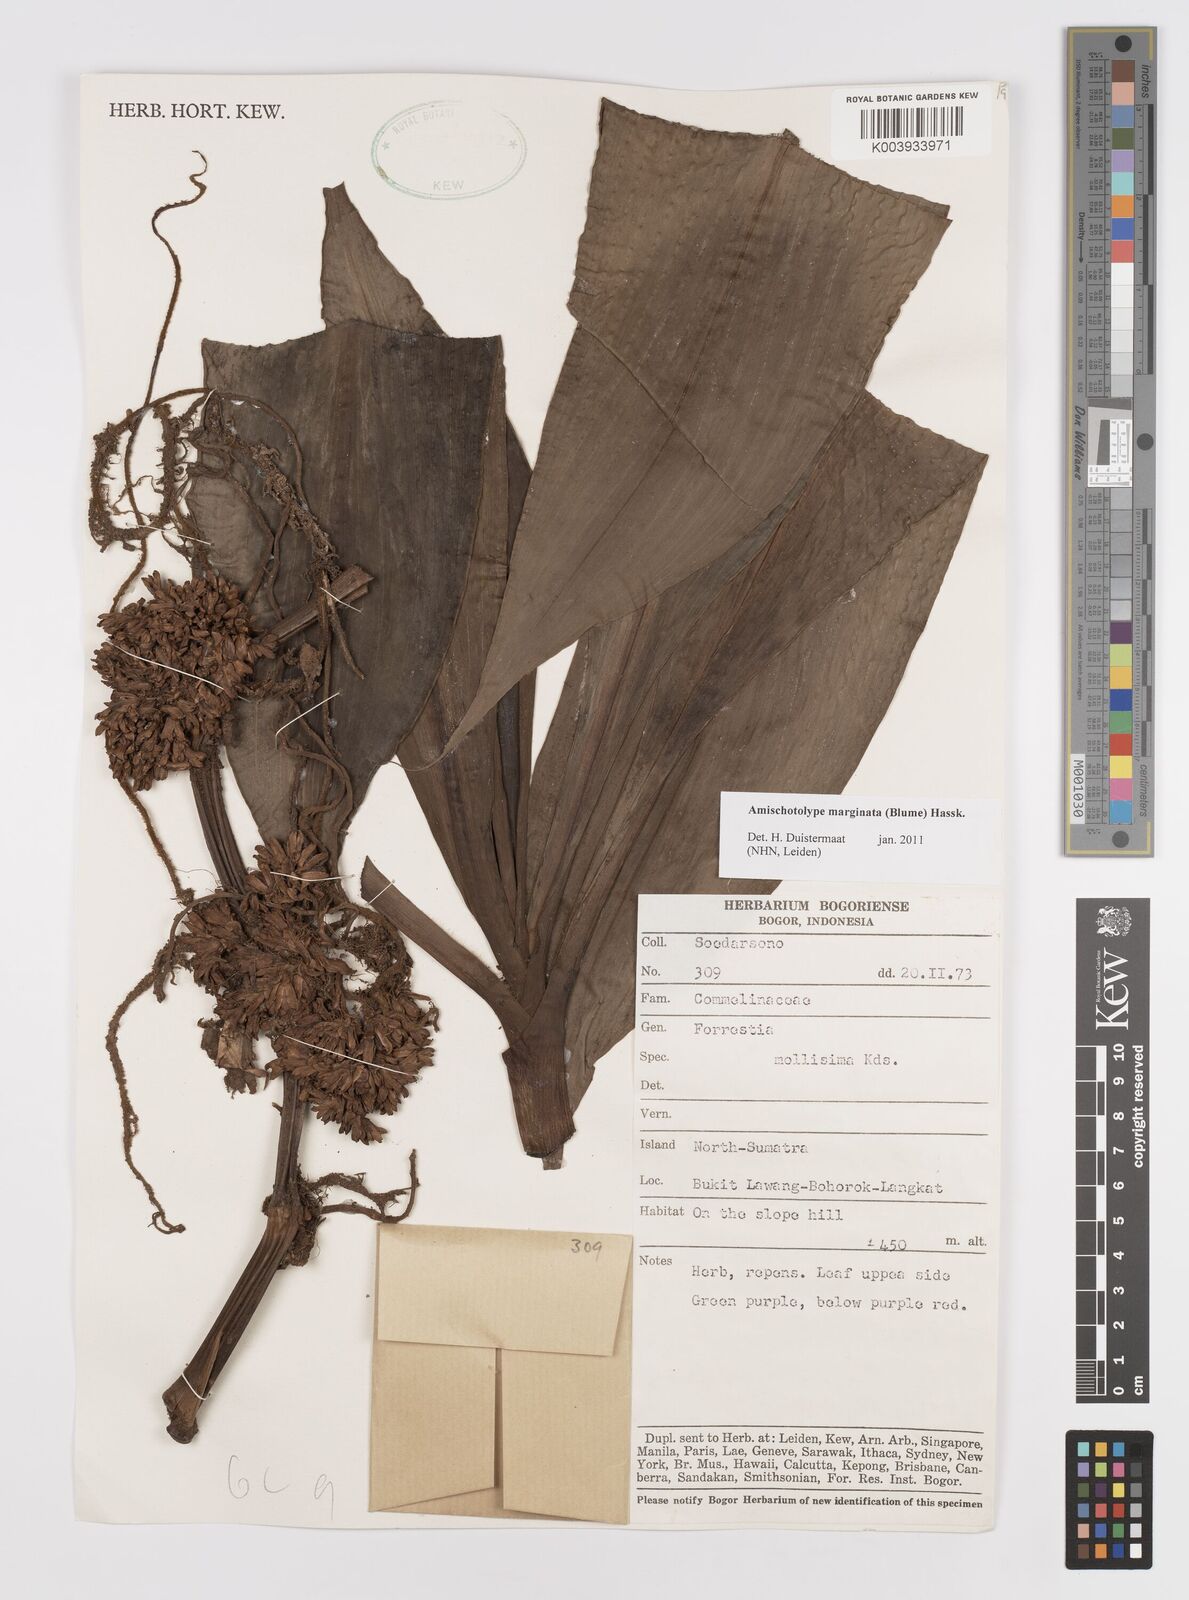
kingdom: Plantae
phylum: Tracheophyta
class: Liliopsida
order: Commelinales
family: Commelinaceae
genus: Amischotolype
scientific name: Amischotolype marginata
